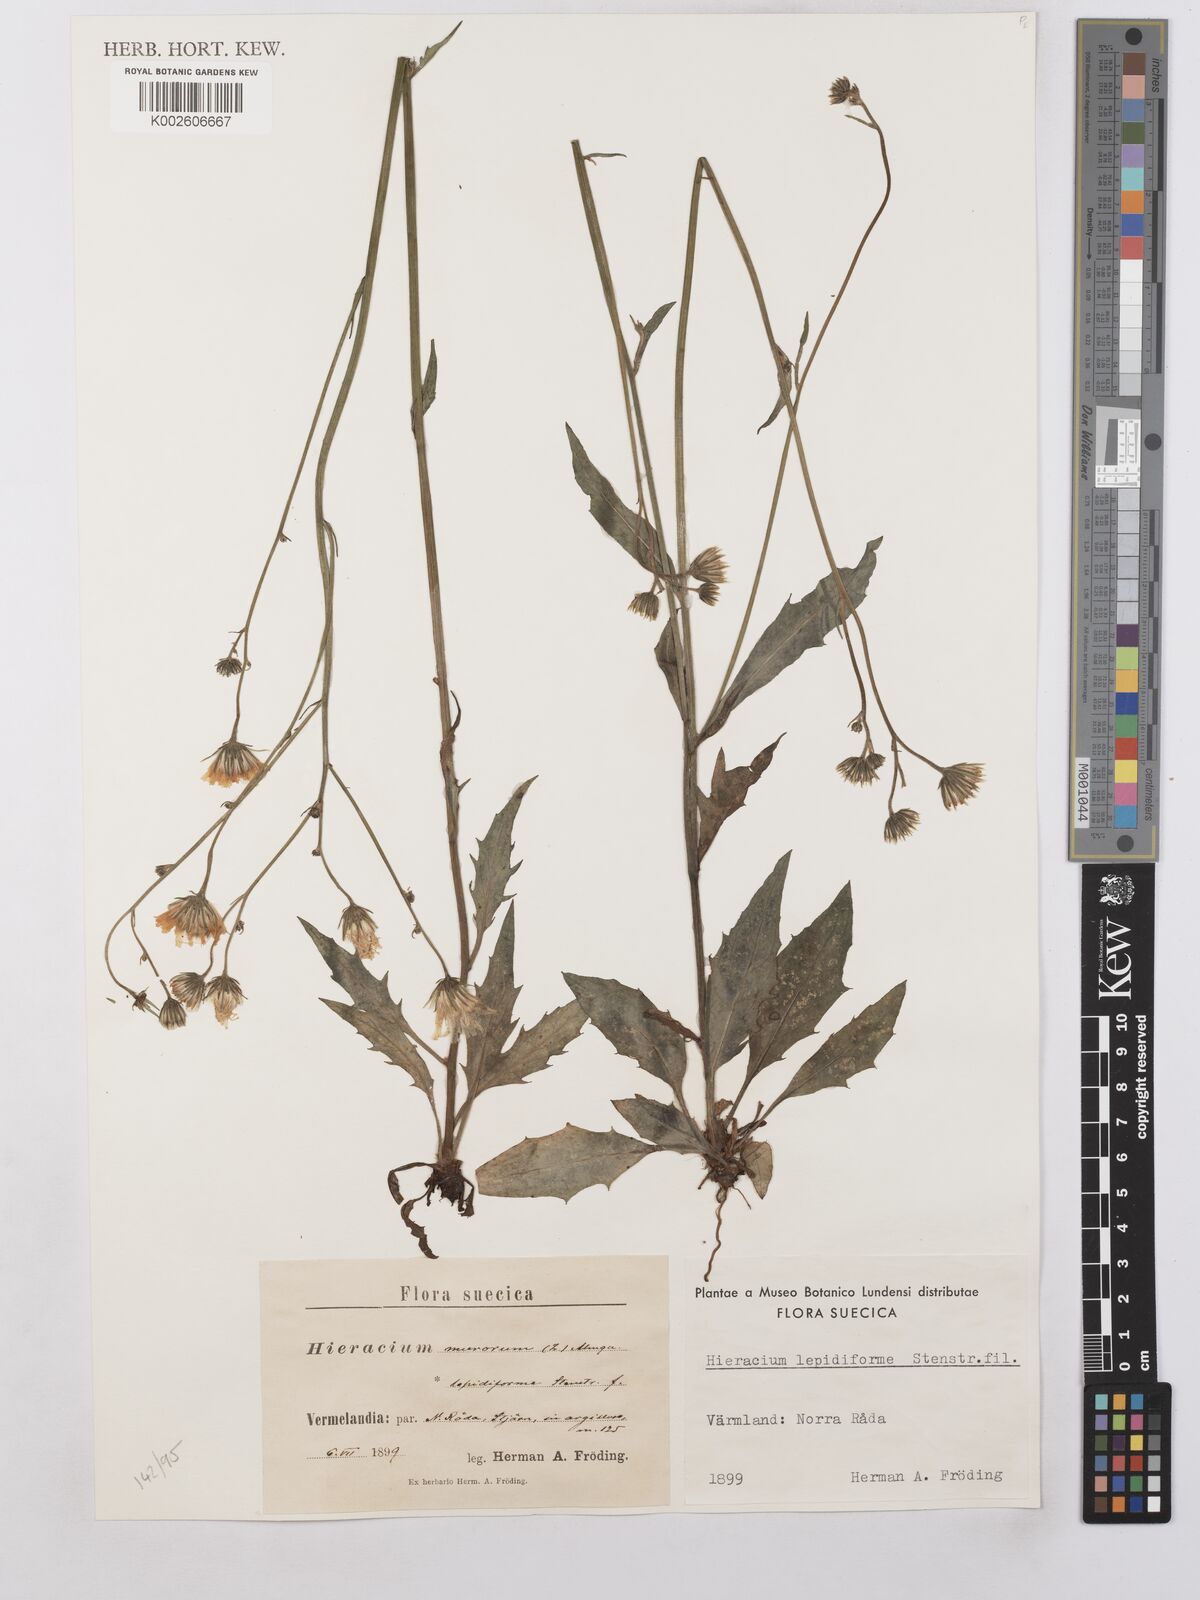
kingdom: Plantae
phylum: Tracheophyta
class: Magnoliopsida
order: Asterales
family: Asteraceae
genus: Hieracium
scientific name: Hieracium lachenalii
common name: Common hawkweed
